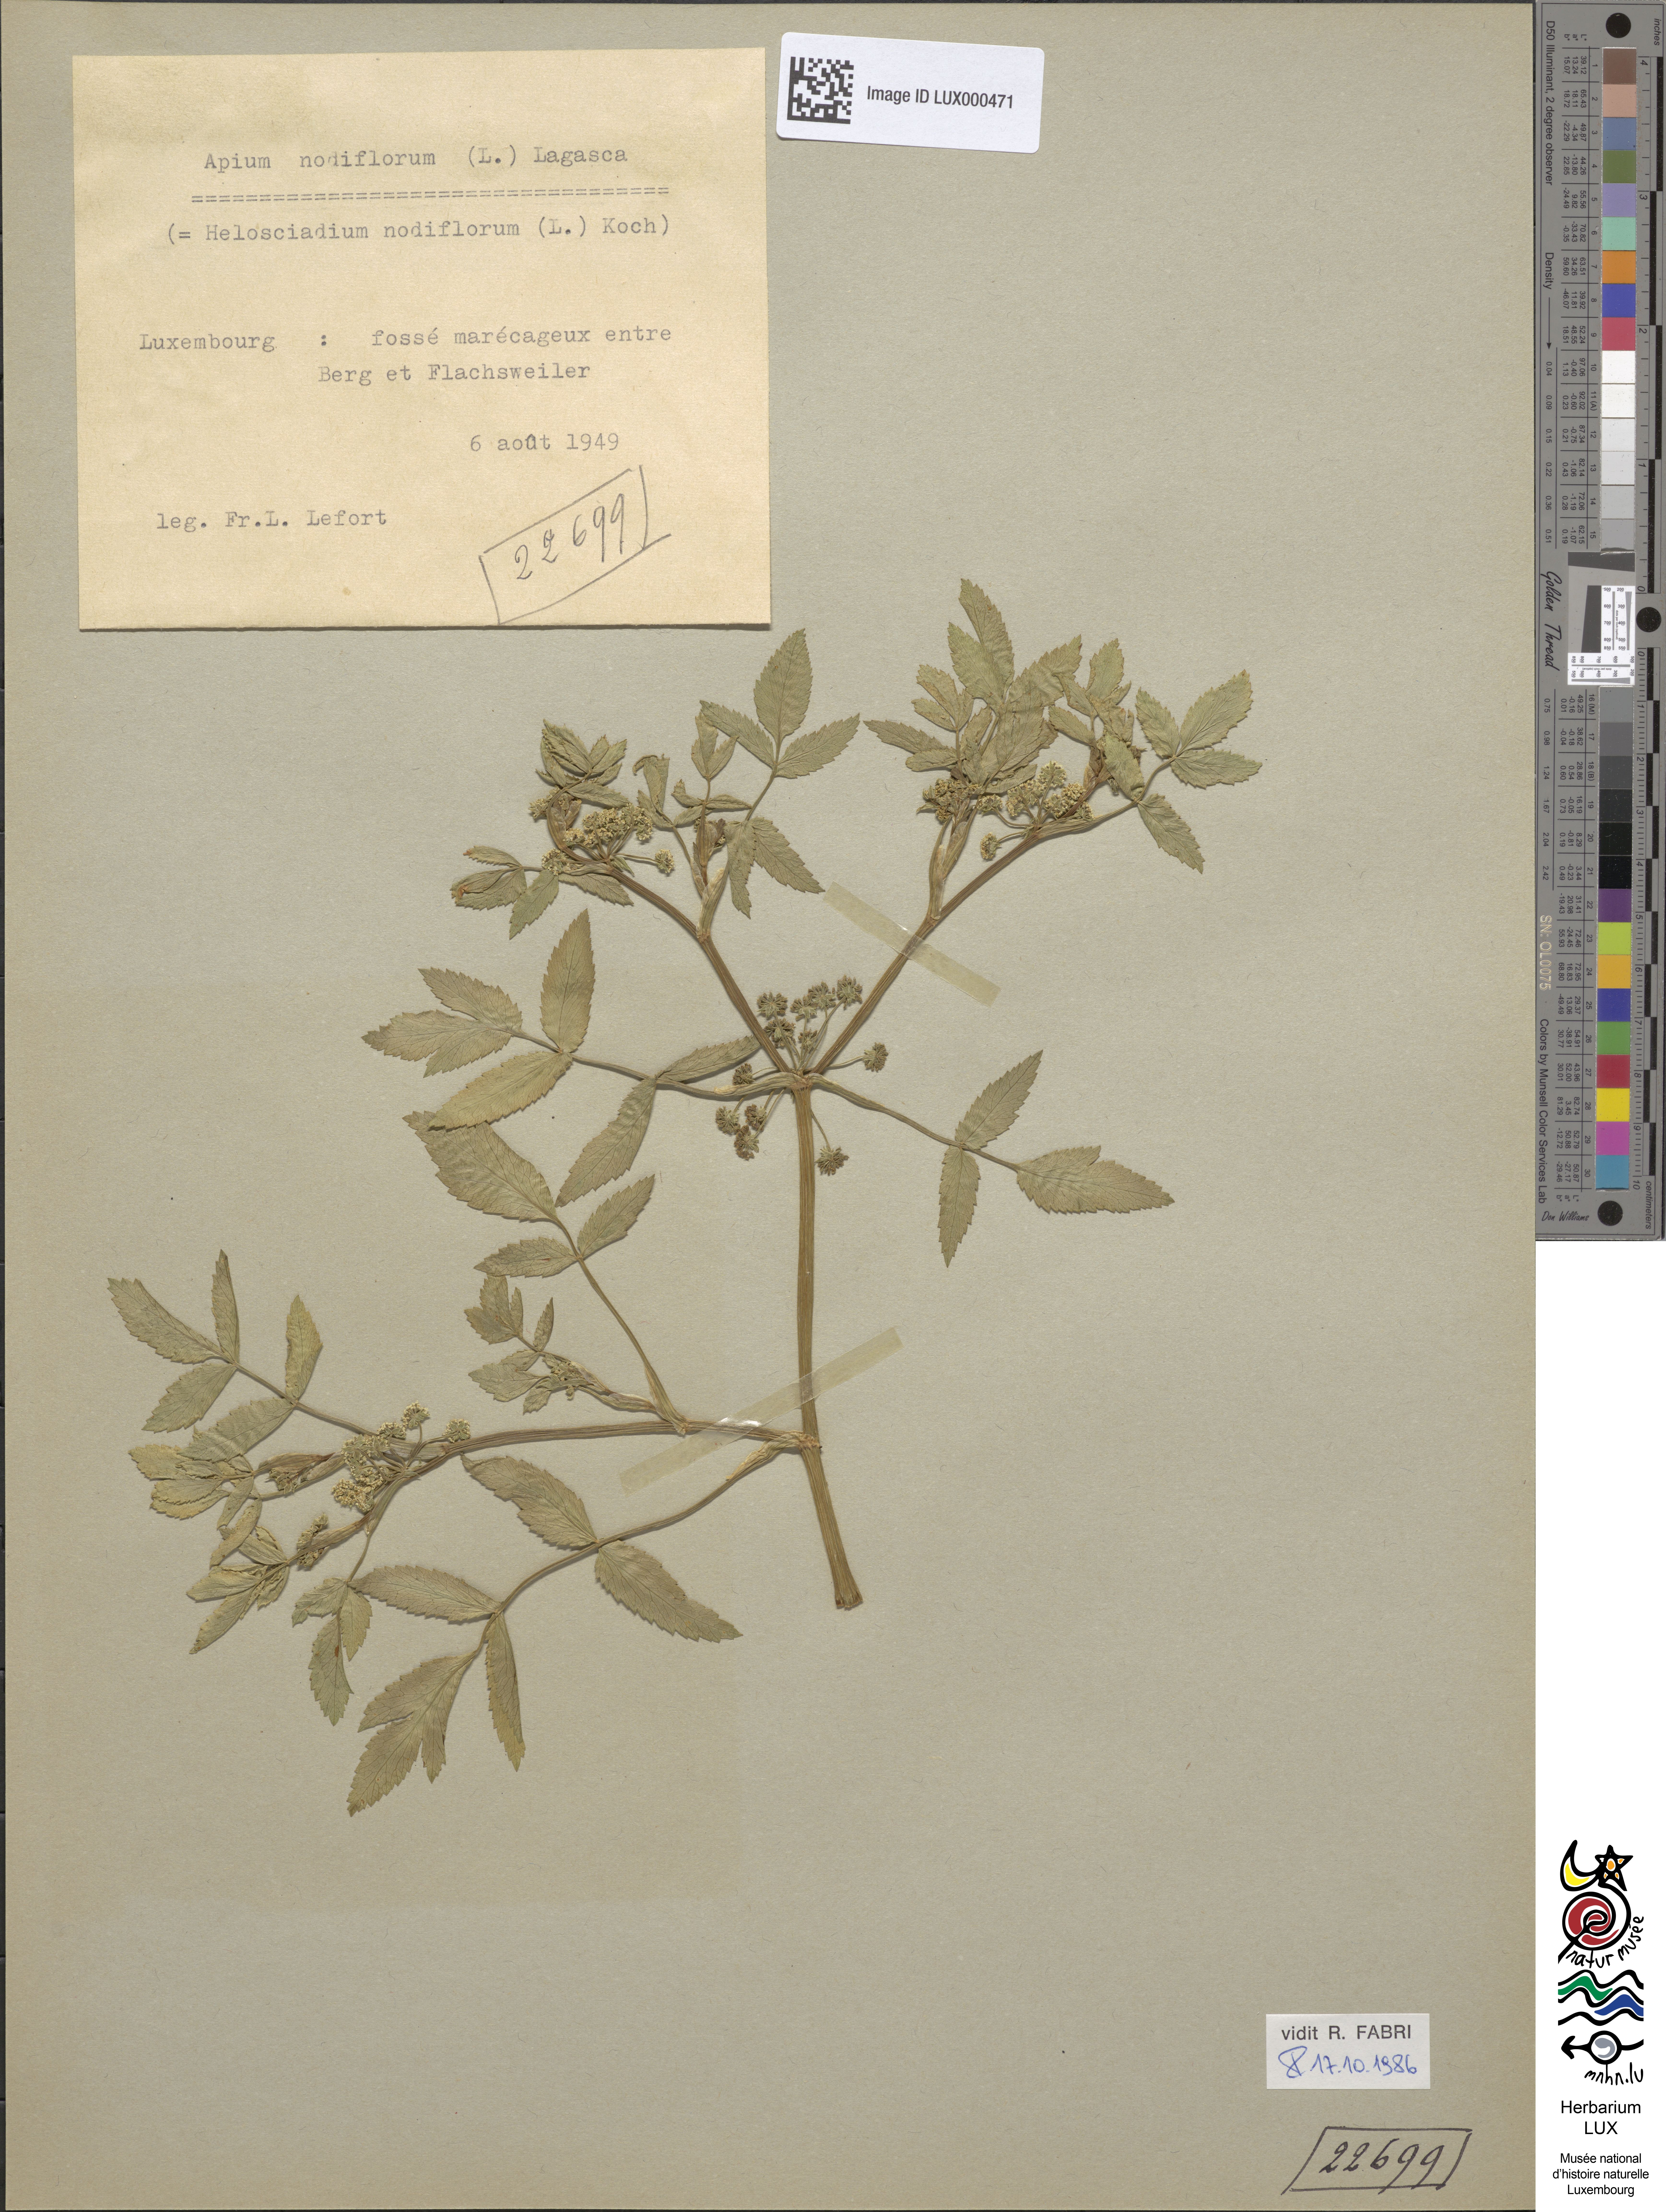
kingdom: Plantae
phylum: Tracheophyta
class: Magnoliopsida
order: Apiales
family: Apiaceae
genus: Helosciadium
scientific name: Helosciadium nodiflorum
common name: Fool's-watercress
